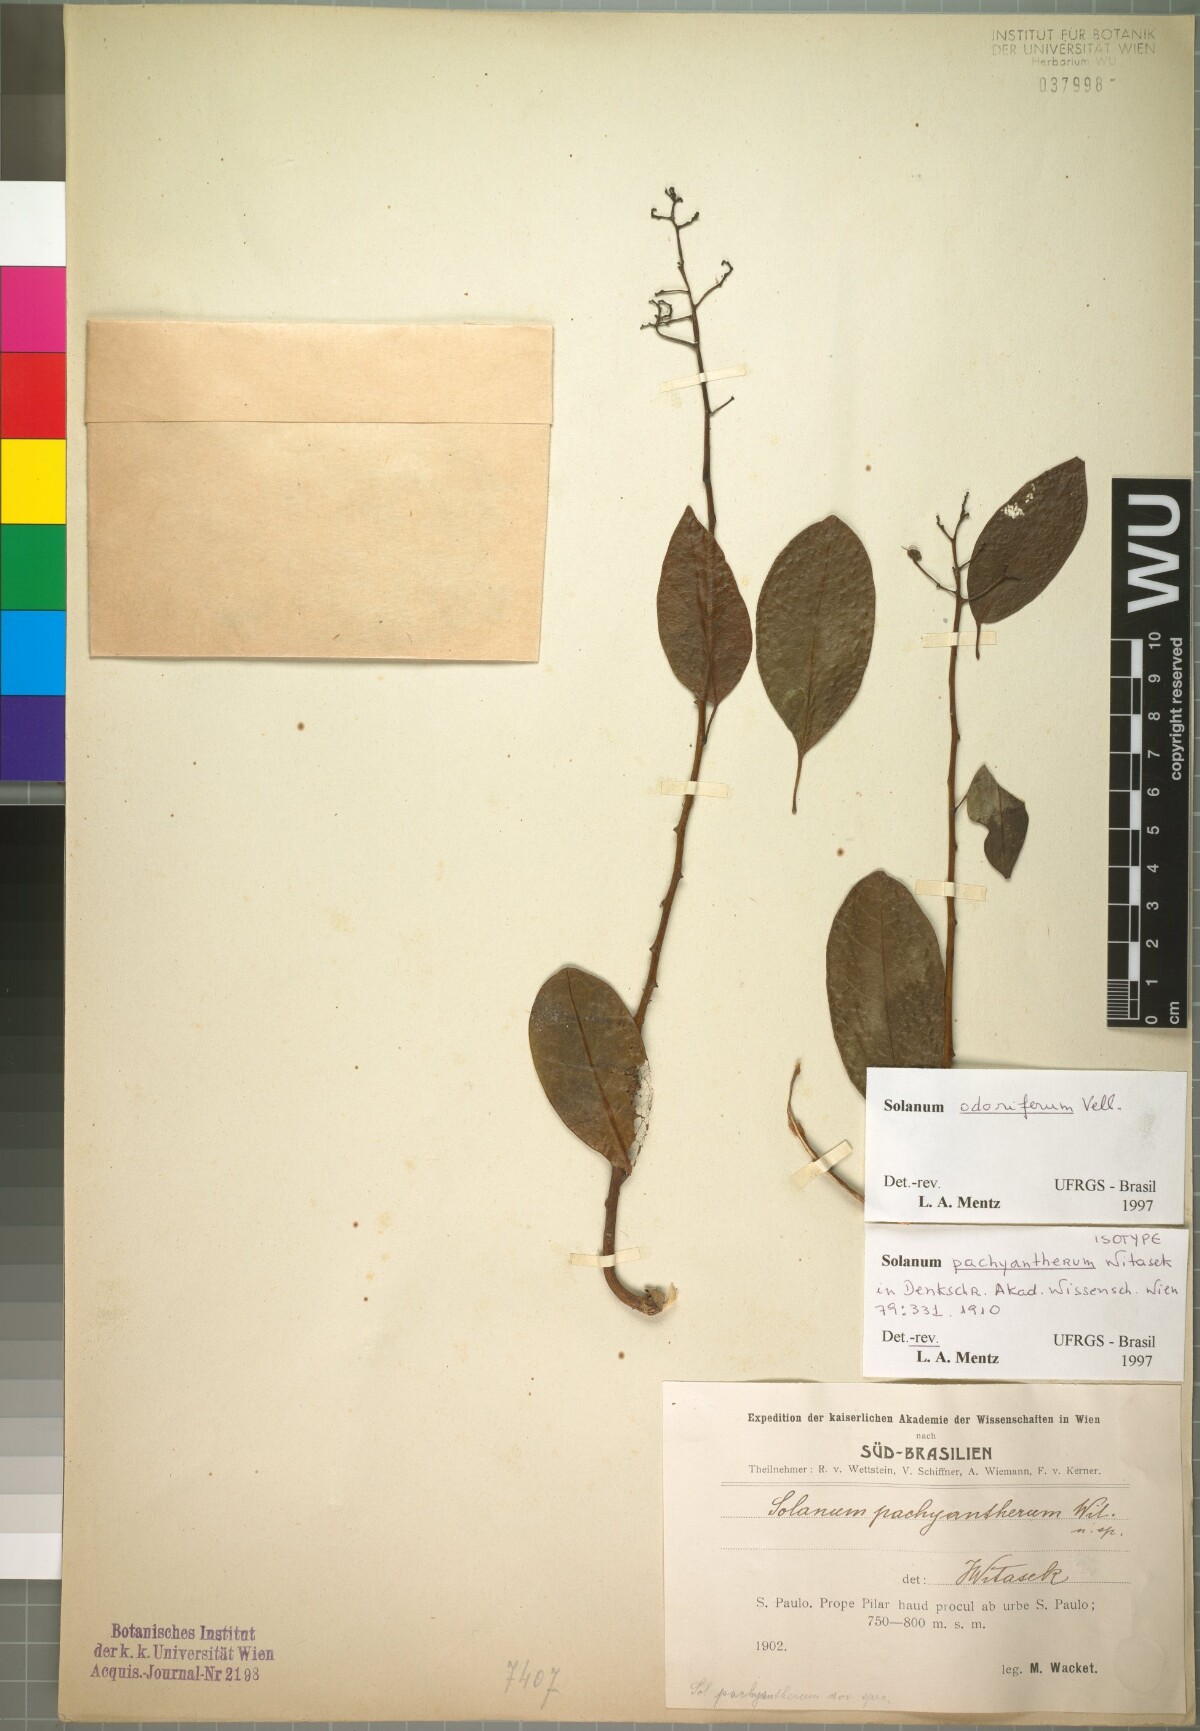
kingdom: Plantae
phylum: Tracheophyta
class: Magnoliopsida
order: Solanales
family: Solanaceae
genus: Solanum
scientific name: Solanum odoriferum
